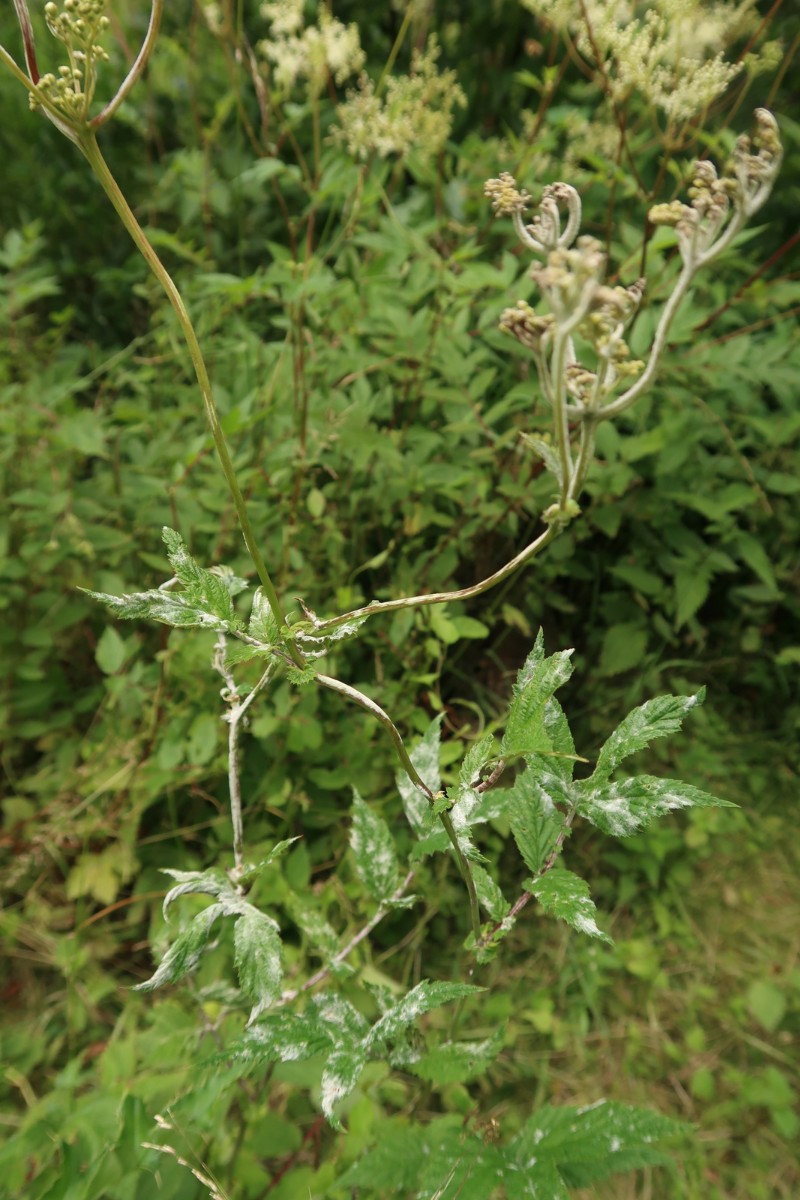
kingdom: Fungi
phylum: Ascomycota
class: Leotiomycetes
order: Helotiales
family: Erysiphaceae
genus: Podosphaera
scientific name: Podosphaera filipendulae
